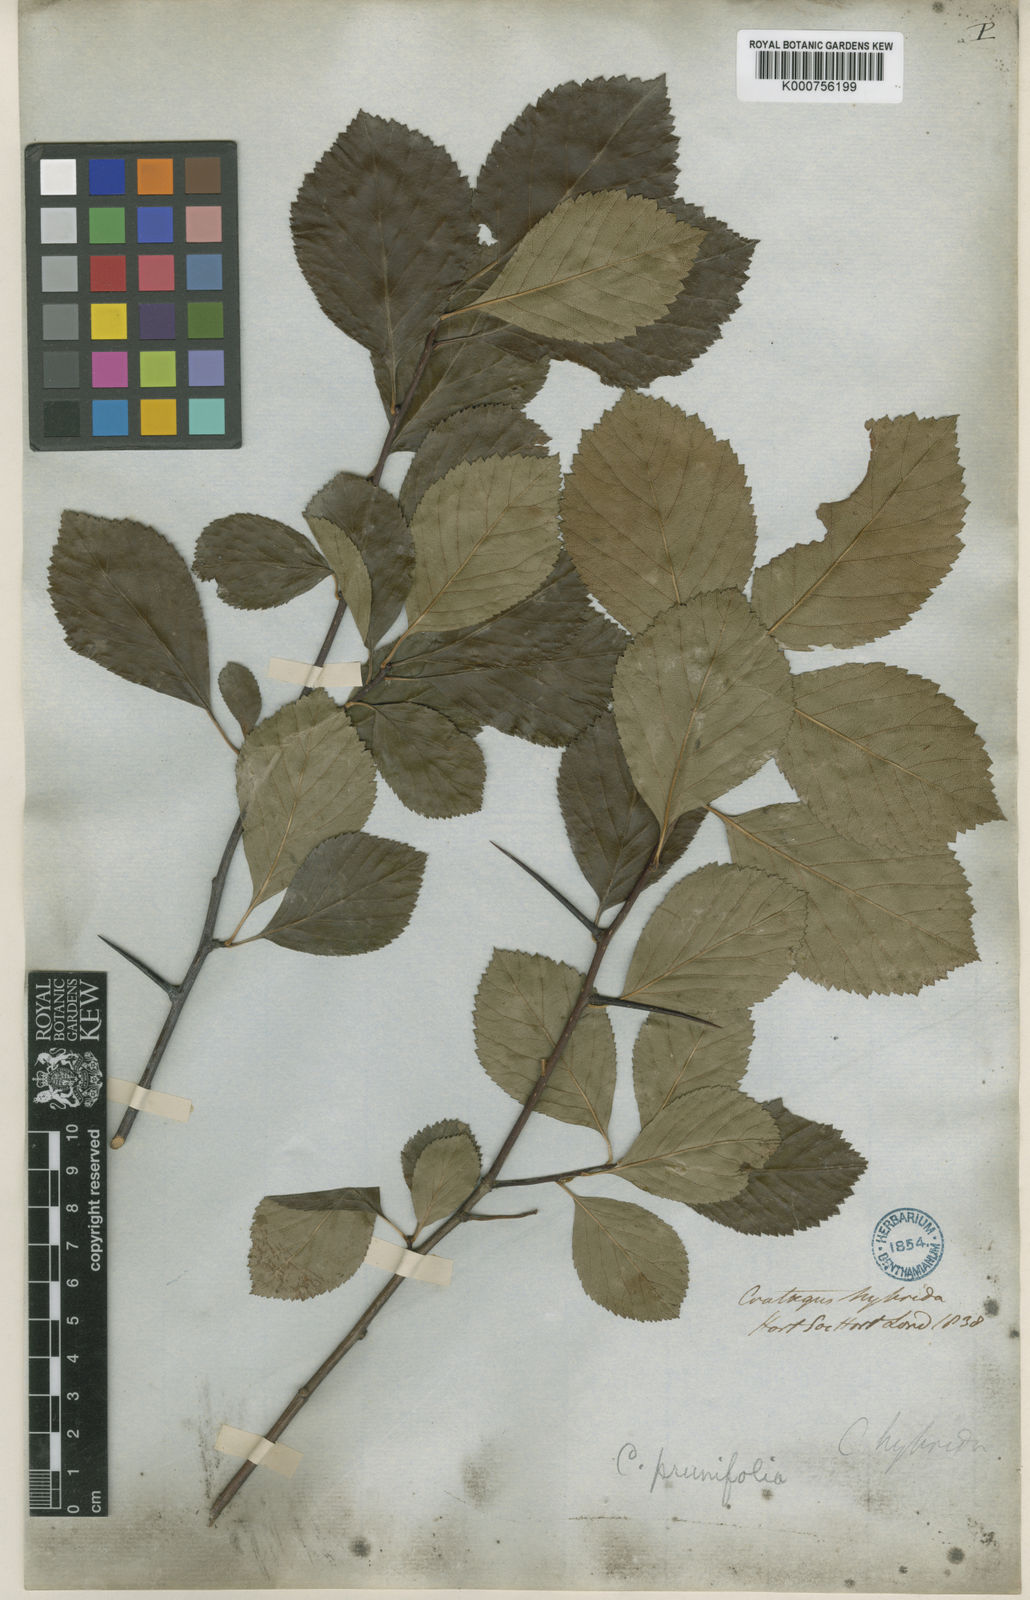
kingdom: Plantae
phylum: Tracheophyta
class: Magnoliopsida
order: Rosales
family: Rosaceae
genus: Crataegus
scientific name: Crataegus persimilis
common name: Broad-leaved cockspurthorn
